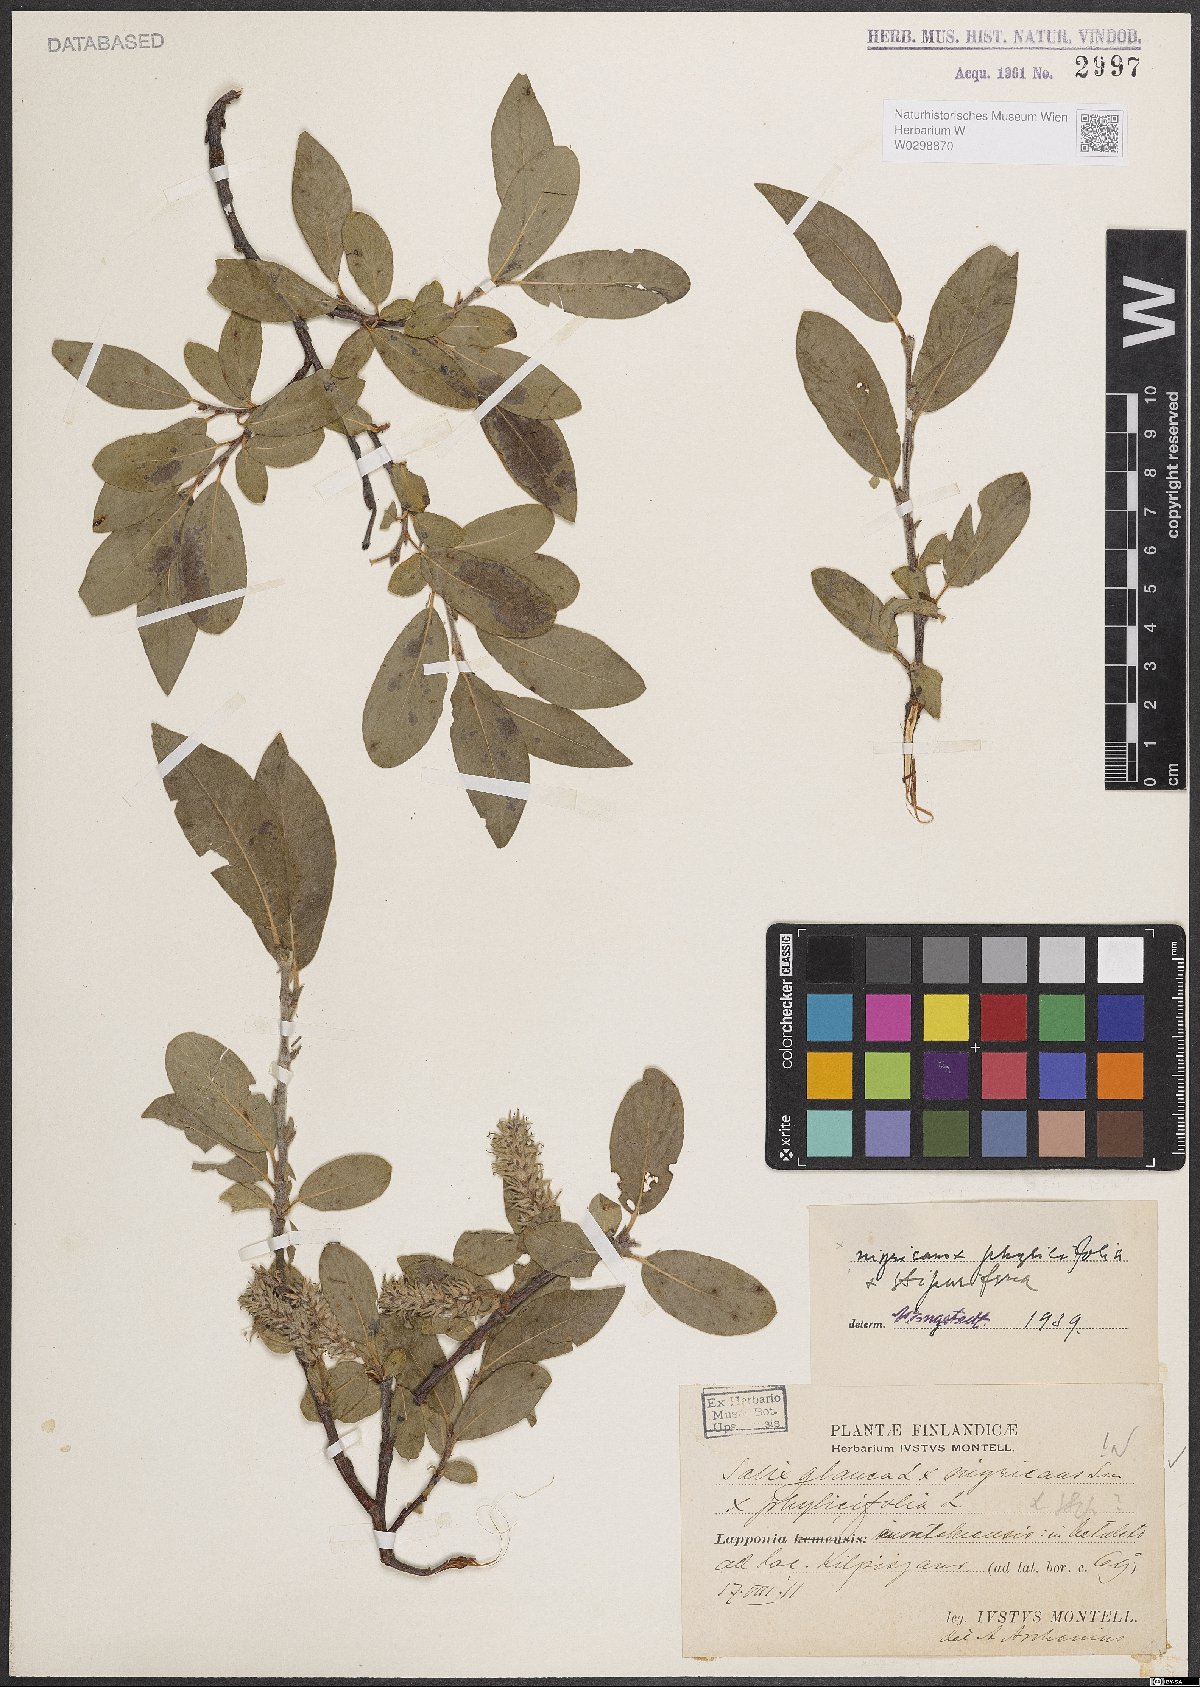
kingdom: Plantae
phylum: Tracheophyta
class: Magnoliopsida
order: Malpighiales
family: Salicaceae
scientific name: Salicaceae
